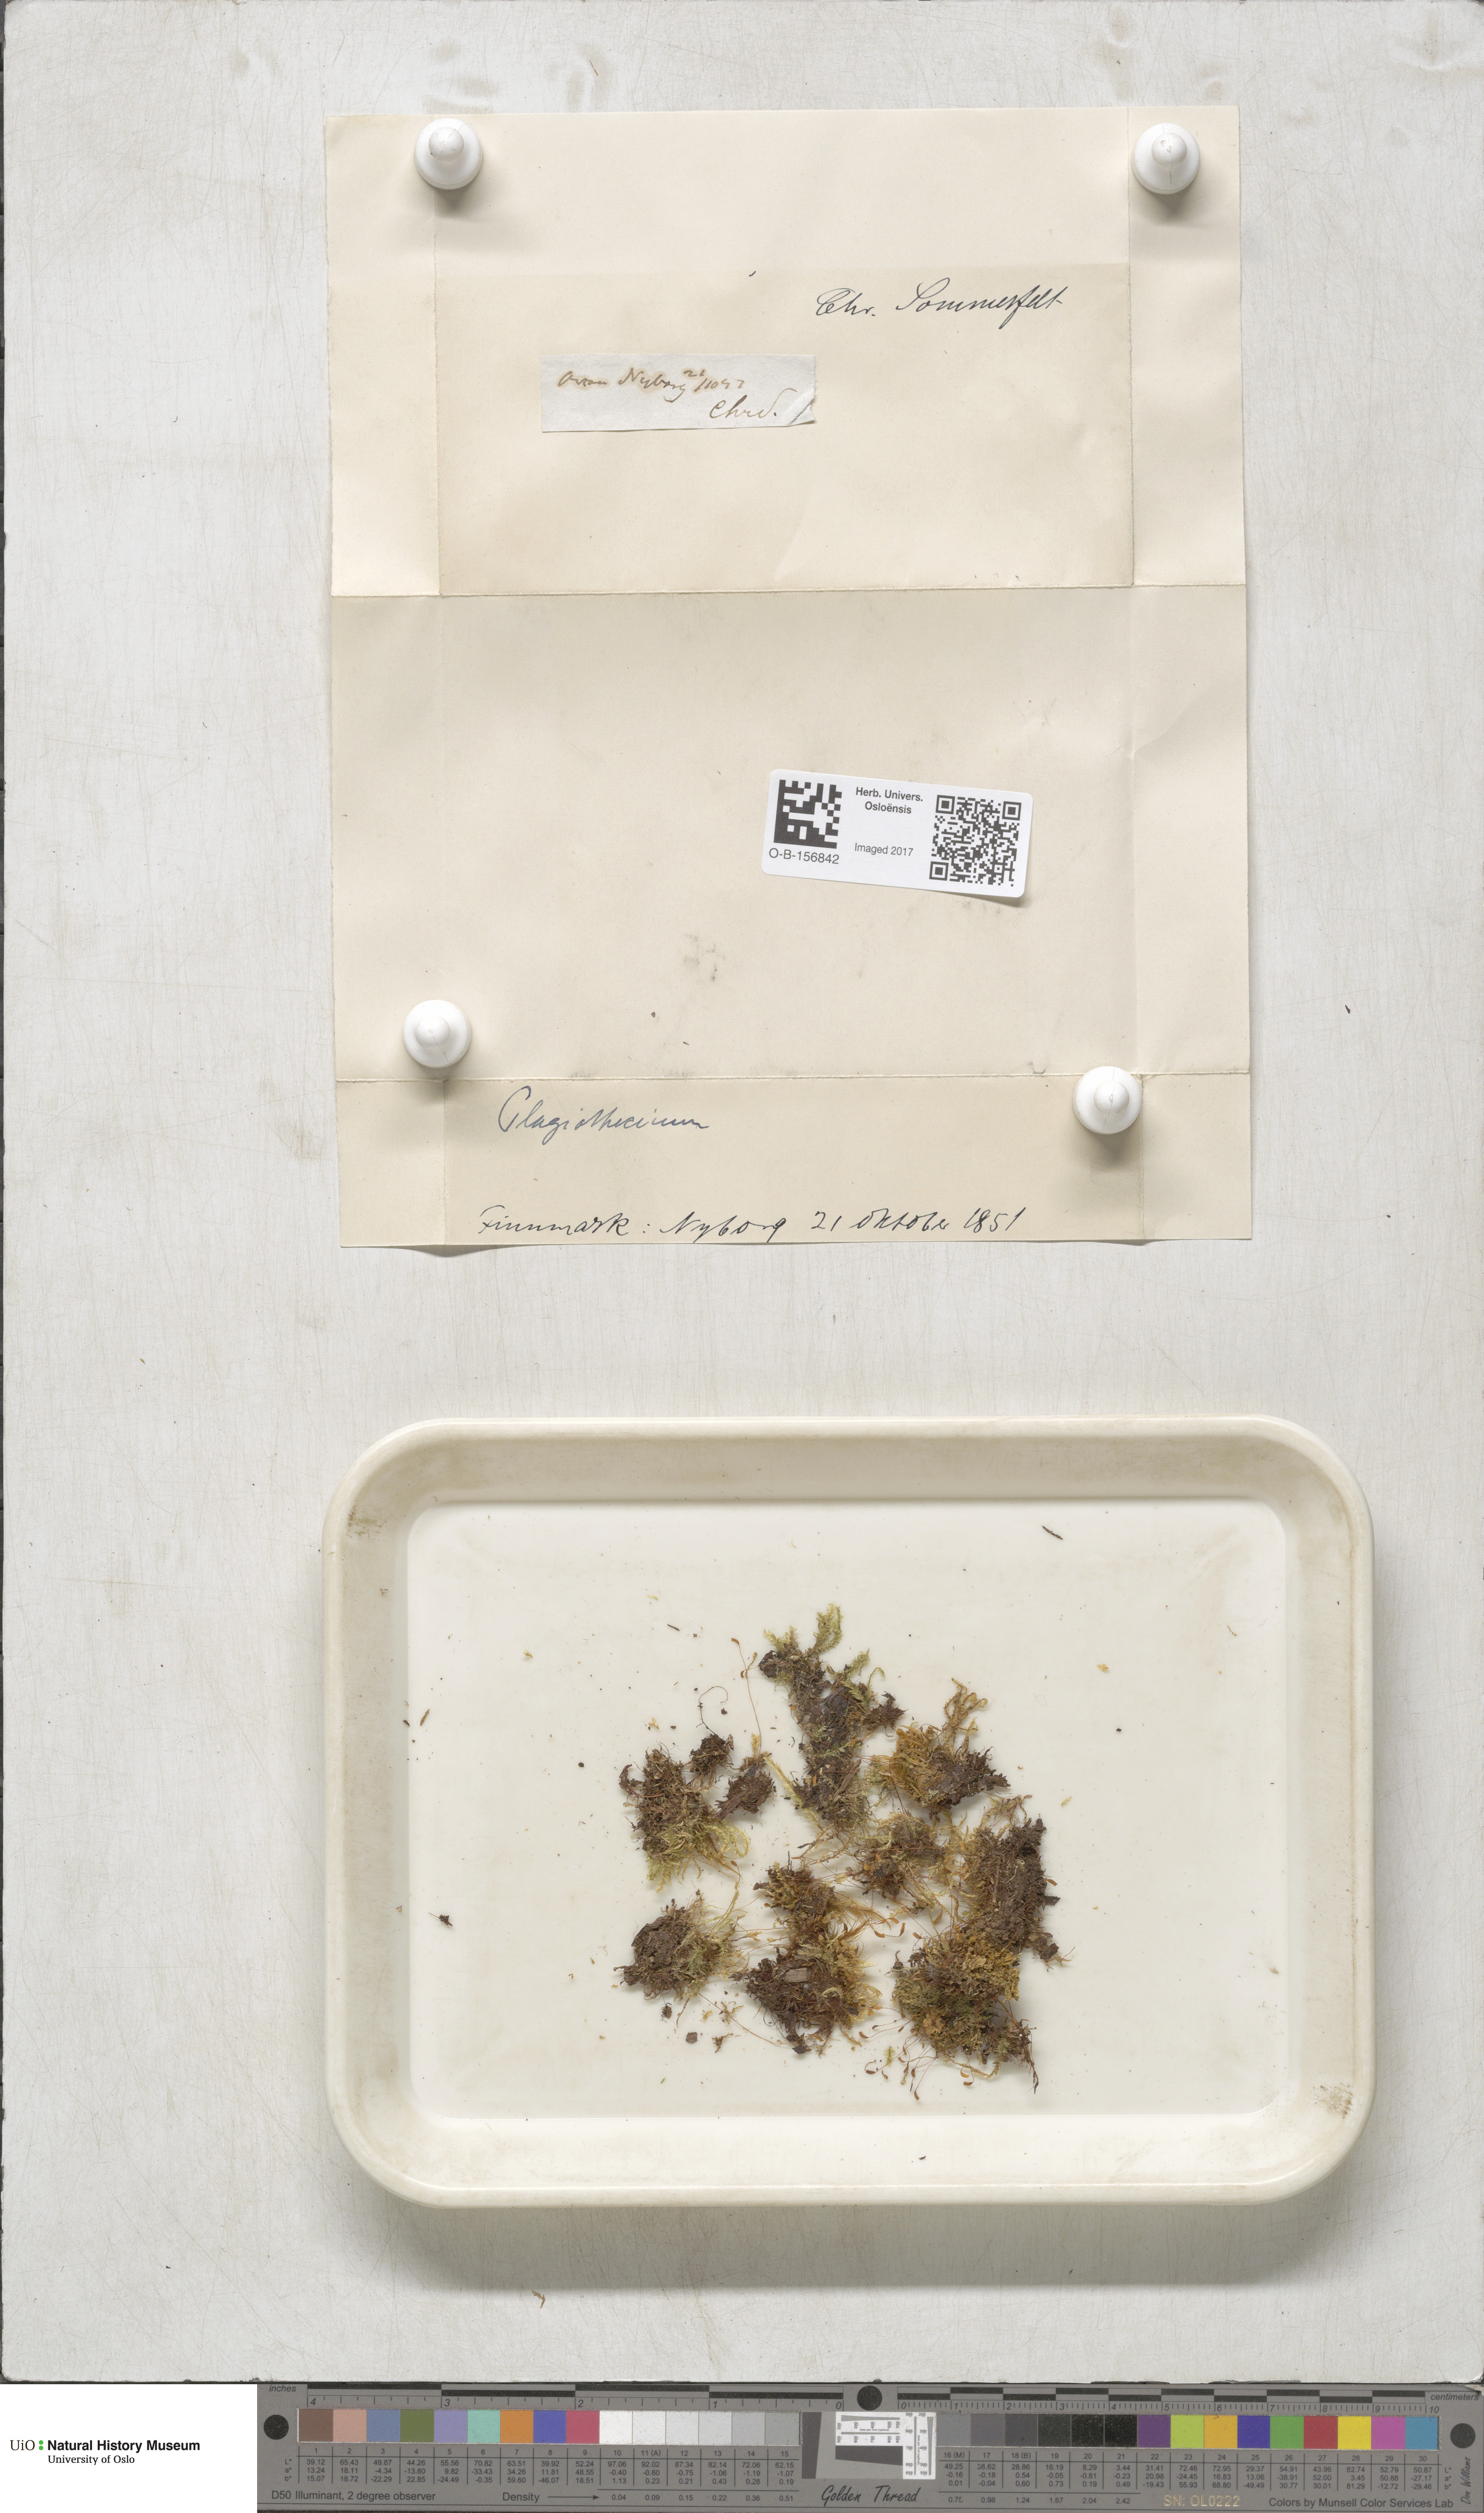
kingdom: Plantae
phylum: Bryophyta
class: Bryopsida
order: Hypnales
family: Plagiotheciaceae
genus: Plagiothecium
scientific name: Plagiothecium
